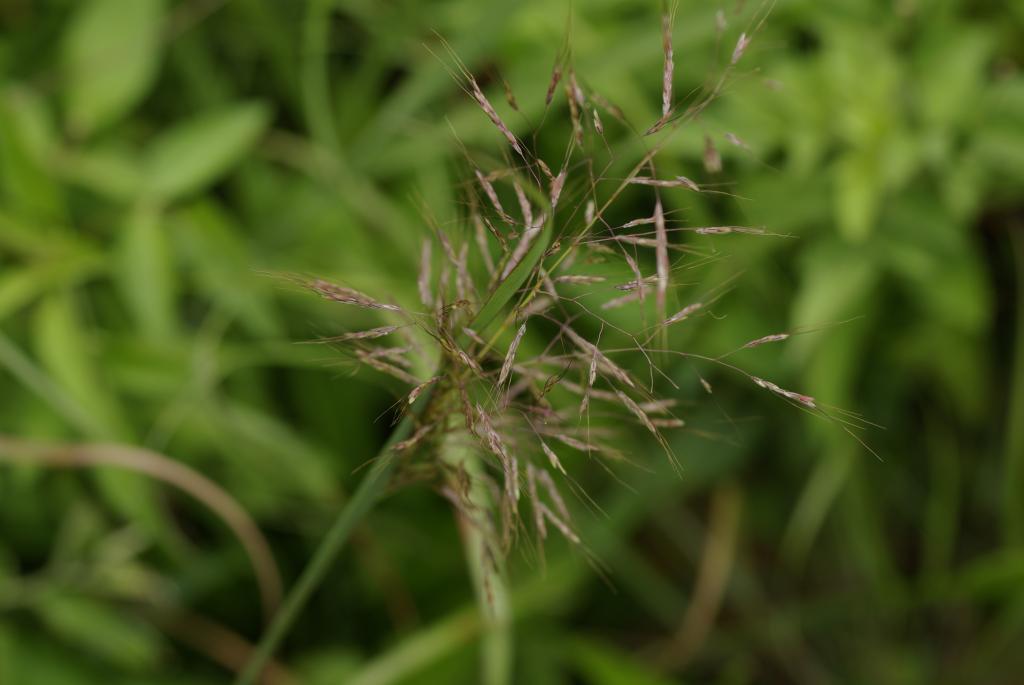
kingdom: Plantae
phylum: Tracheophyta
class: Liliopsida
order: Poales
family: Poaceae
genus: Capillipedium
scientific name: Capillipedium parviflorum
